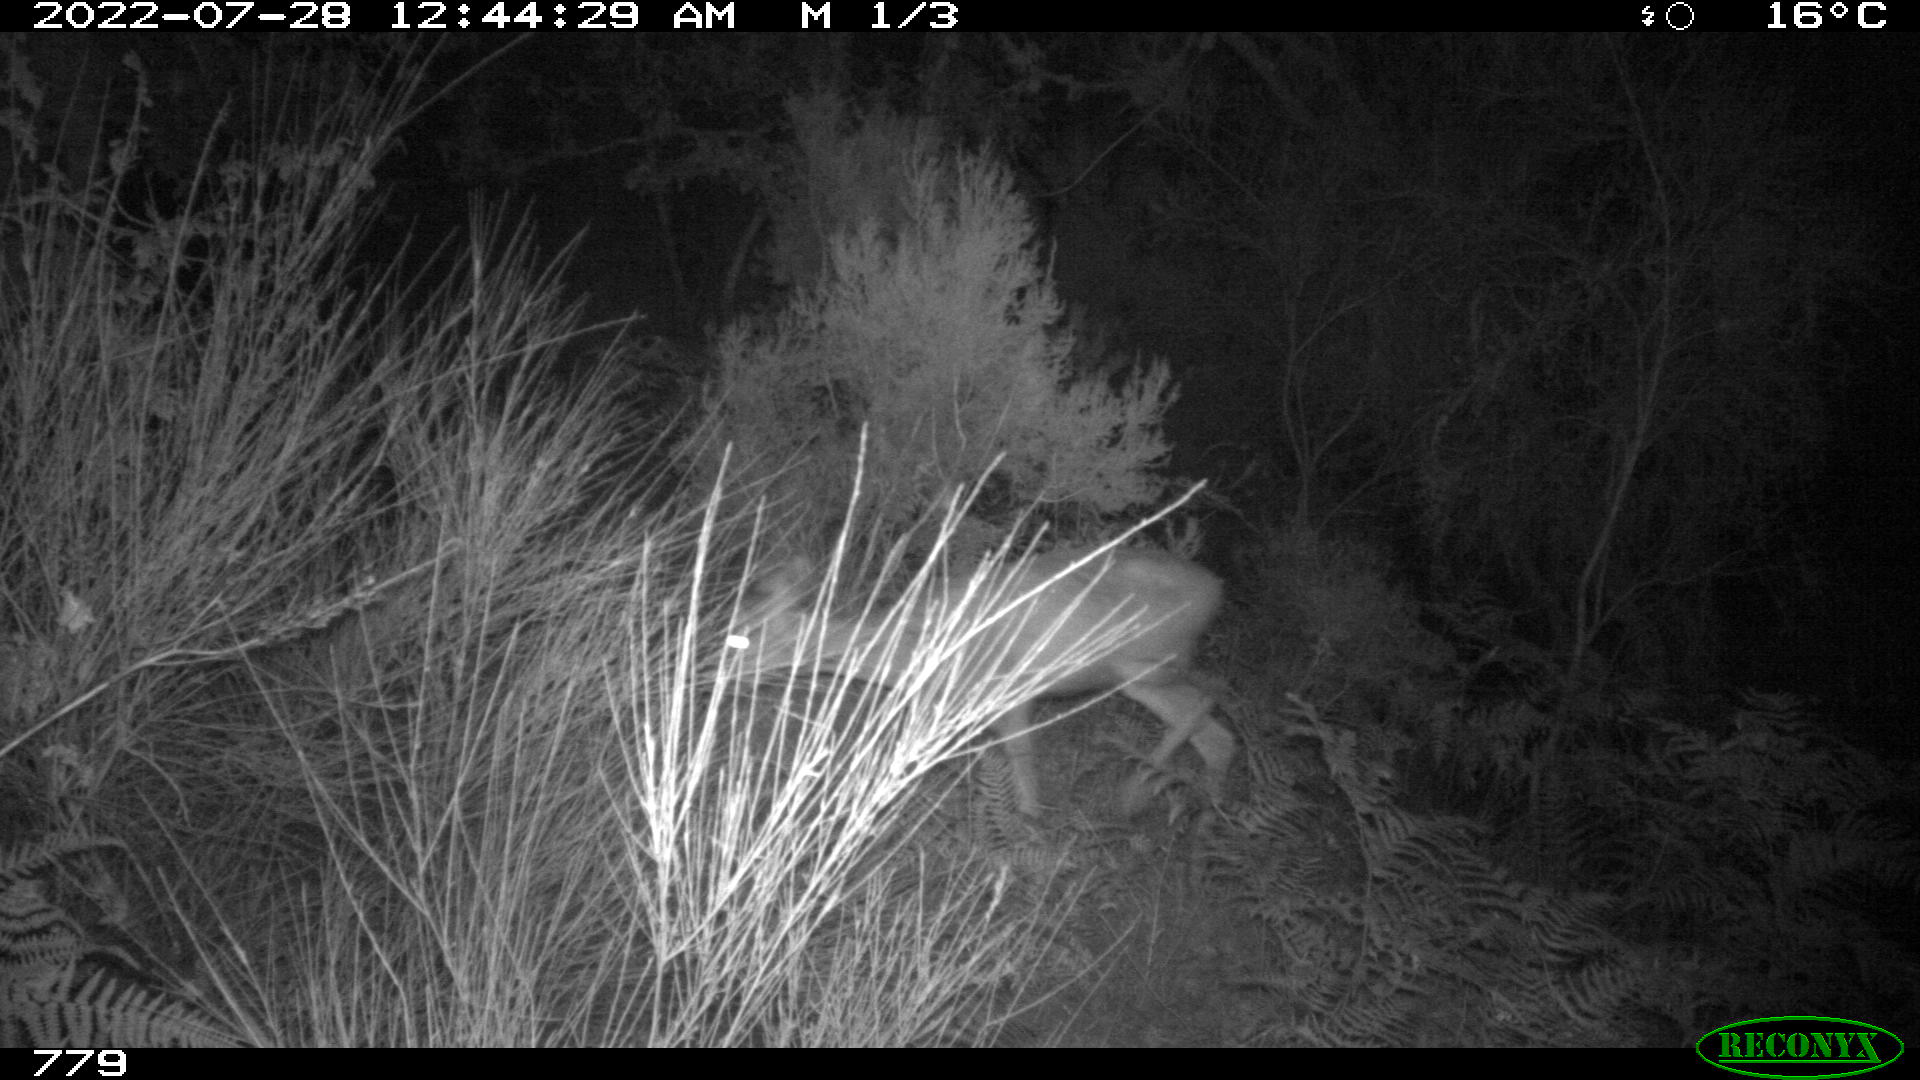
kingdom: Animalia
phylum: Chordata
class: Mammalia
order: Artiodactyla
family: Cervidae
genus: Capreolus
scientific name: Capreolus capreolus
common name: Western roe deer
